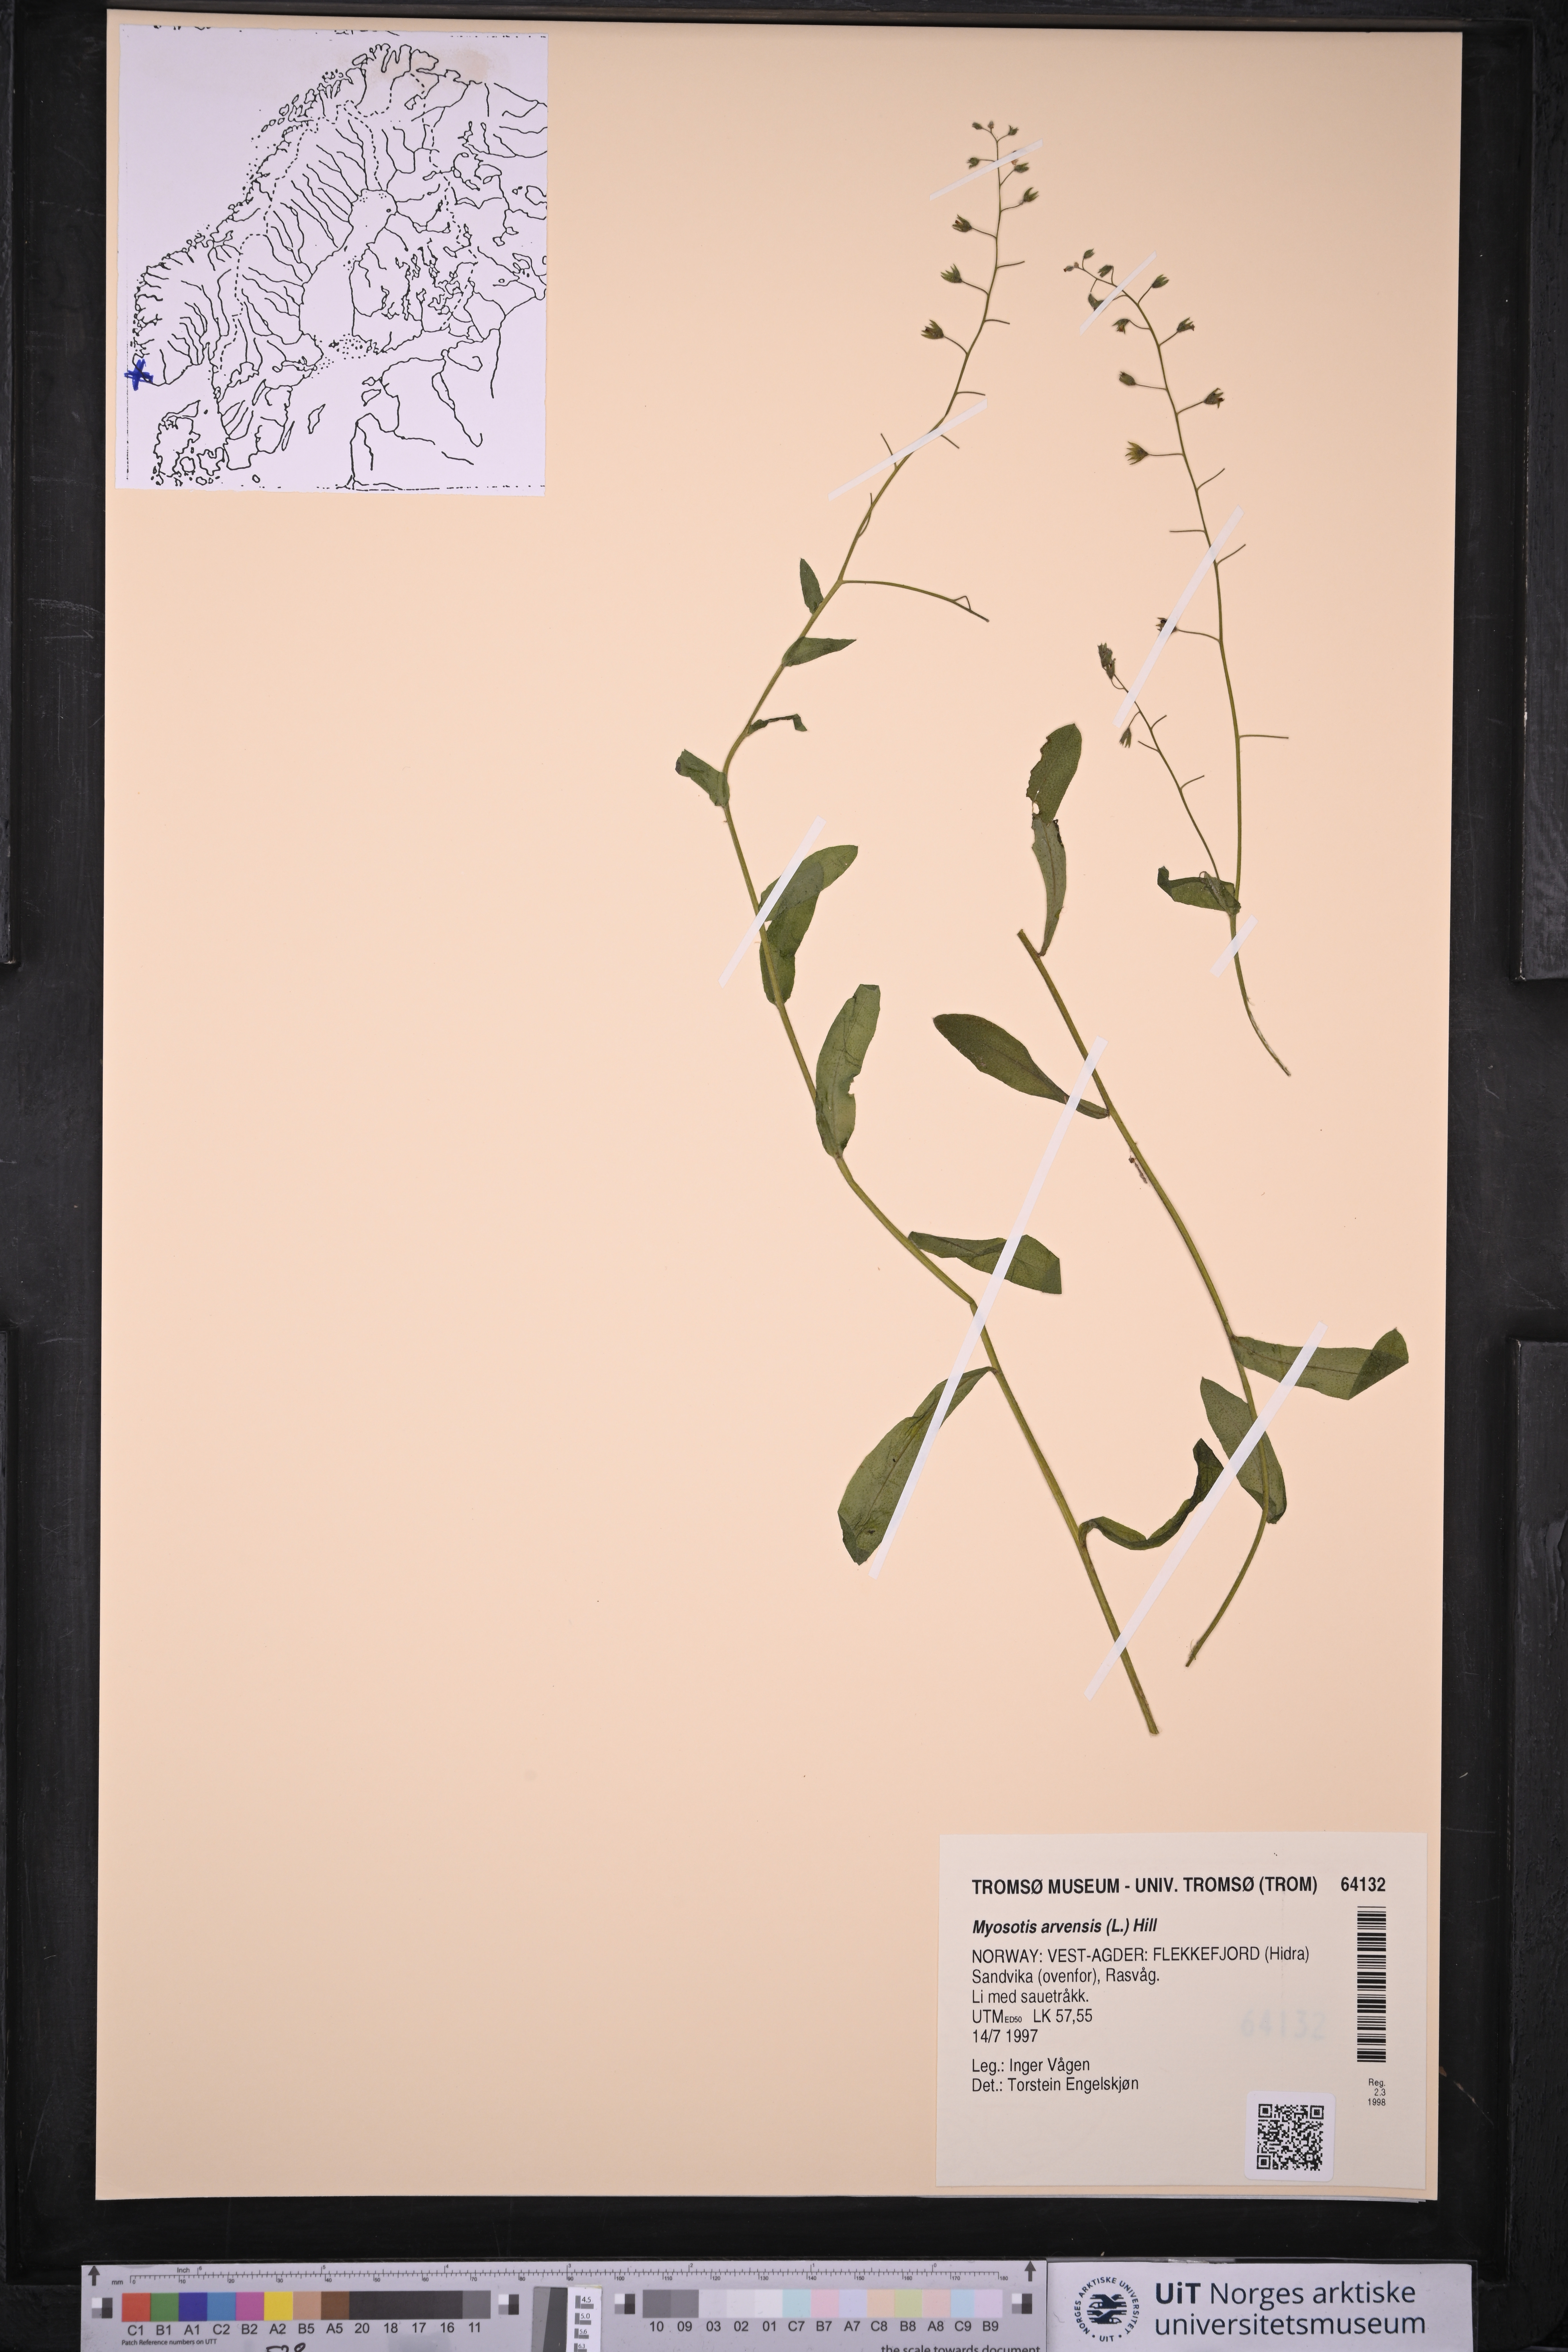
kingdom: Plantae
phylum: Tracheophyta
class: Magnoliopsida
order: Boraginales
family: Boraginaceae
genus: Myosotis
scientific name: Myosotis arvensis
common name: Field forget-me-not
